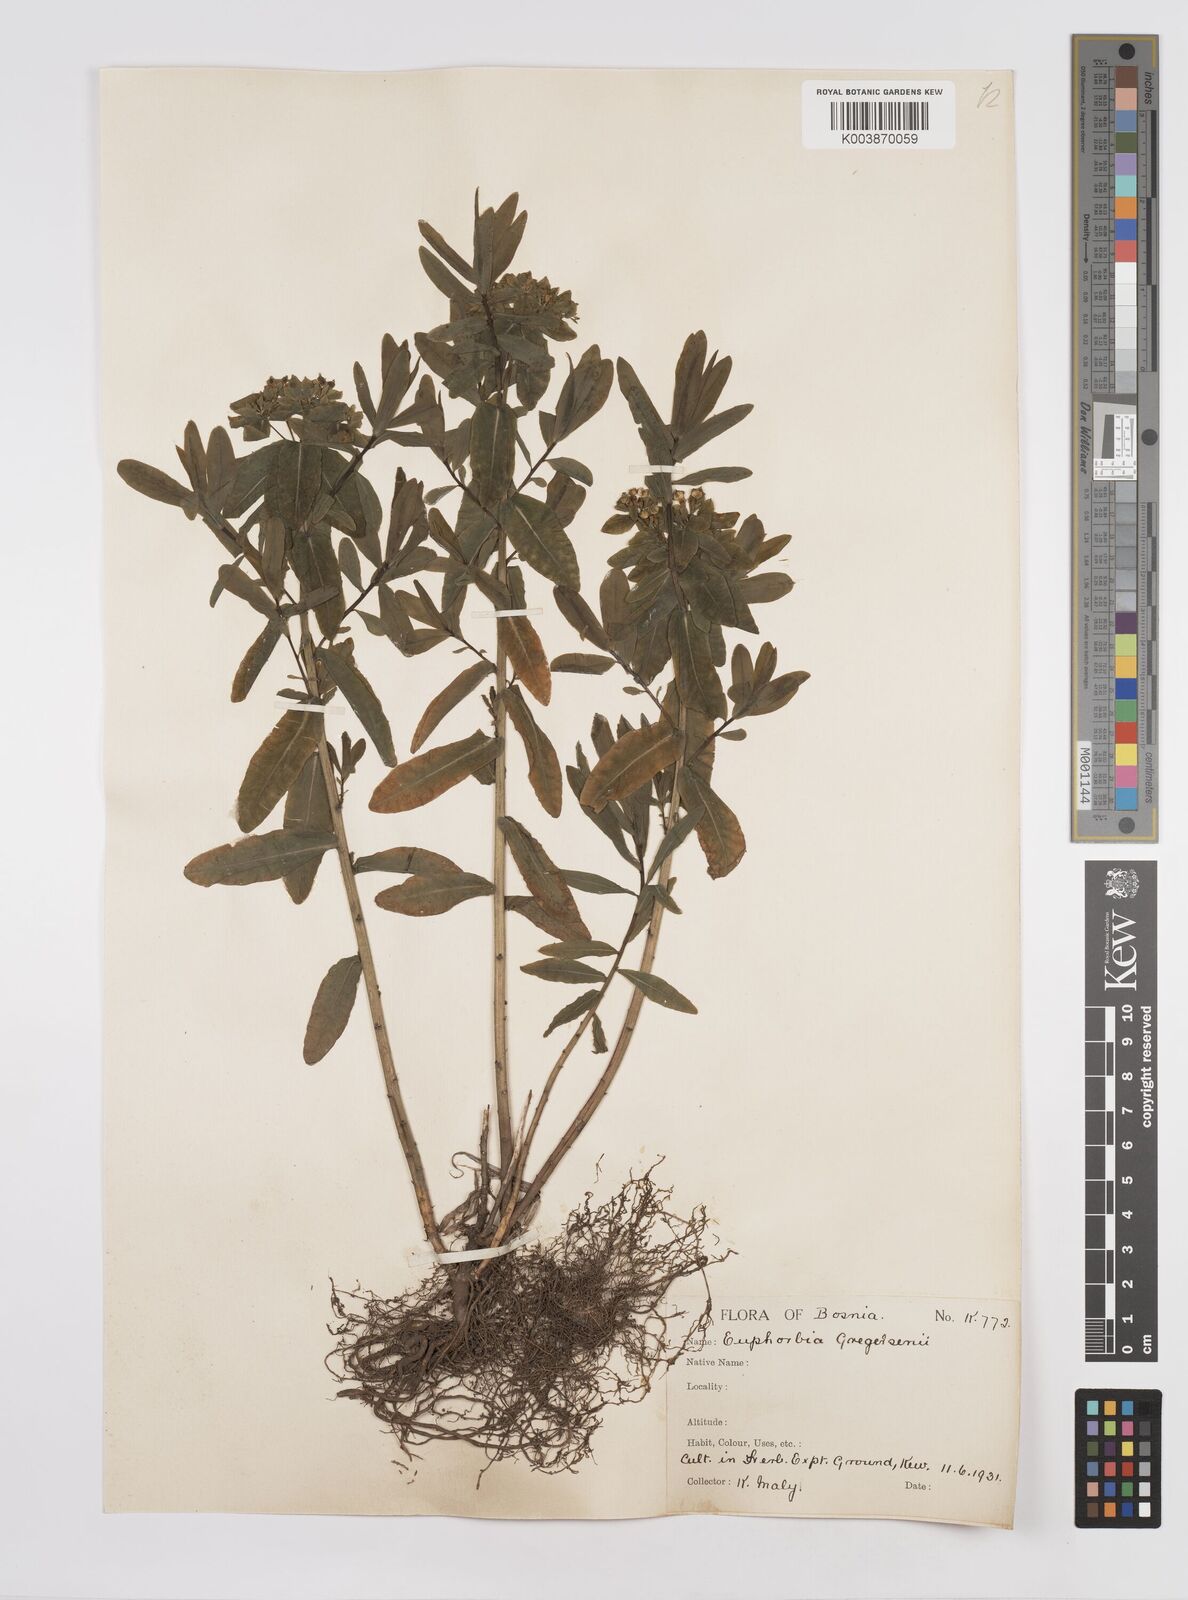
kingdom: Plantae
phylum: Tracheophyta
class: Magnoliopsida
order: Malpighiales
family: Euphorbiaceae
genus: Euphorbia
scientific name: Euphorbia gregersenii
